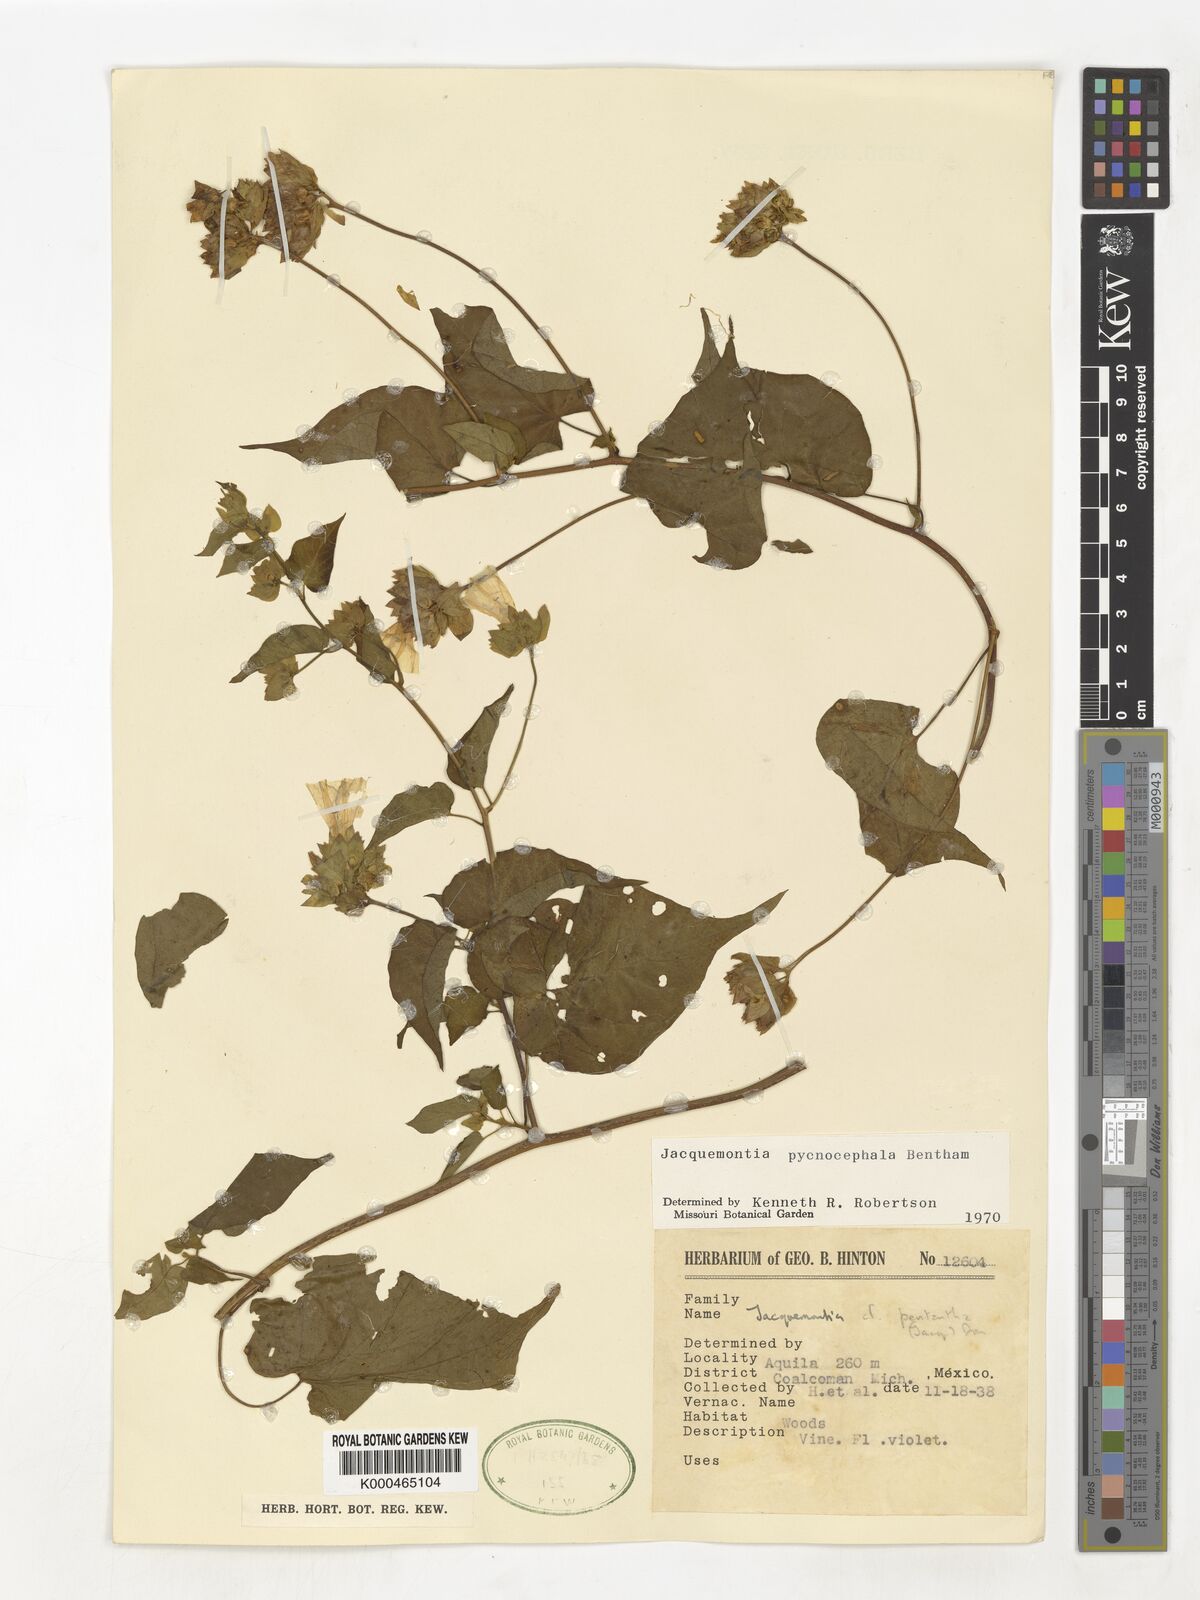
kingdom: Plantae
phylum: Tracheophyta
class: Magnoliopsida
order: Solanales
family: Convolvulaceae
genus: Jacquemontia
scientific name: Jacquemontia pycnocephala
